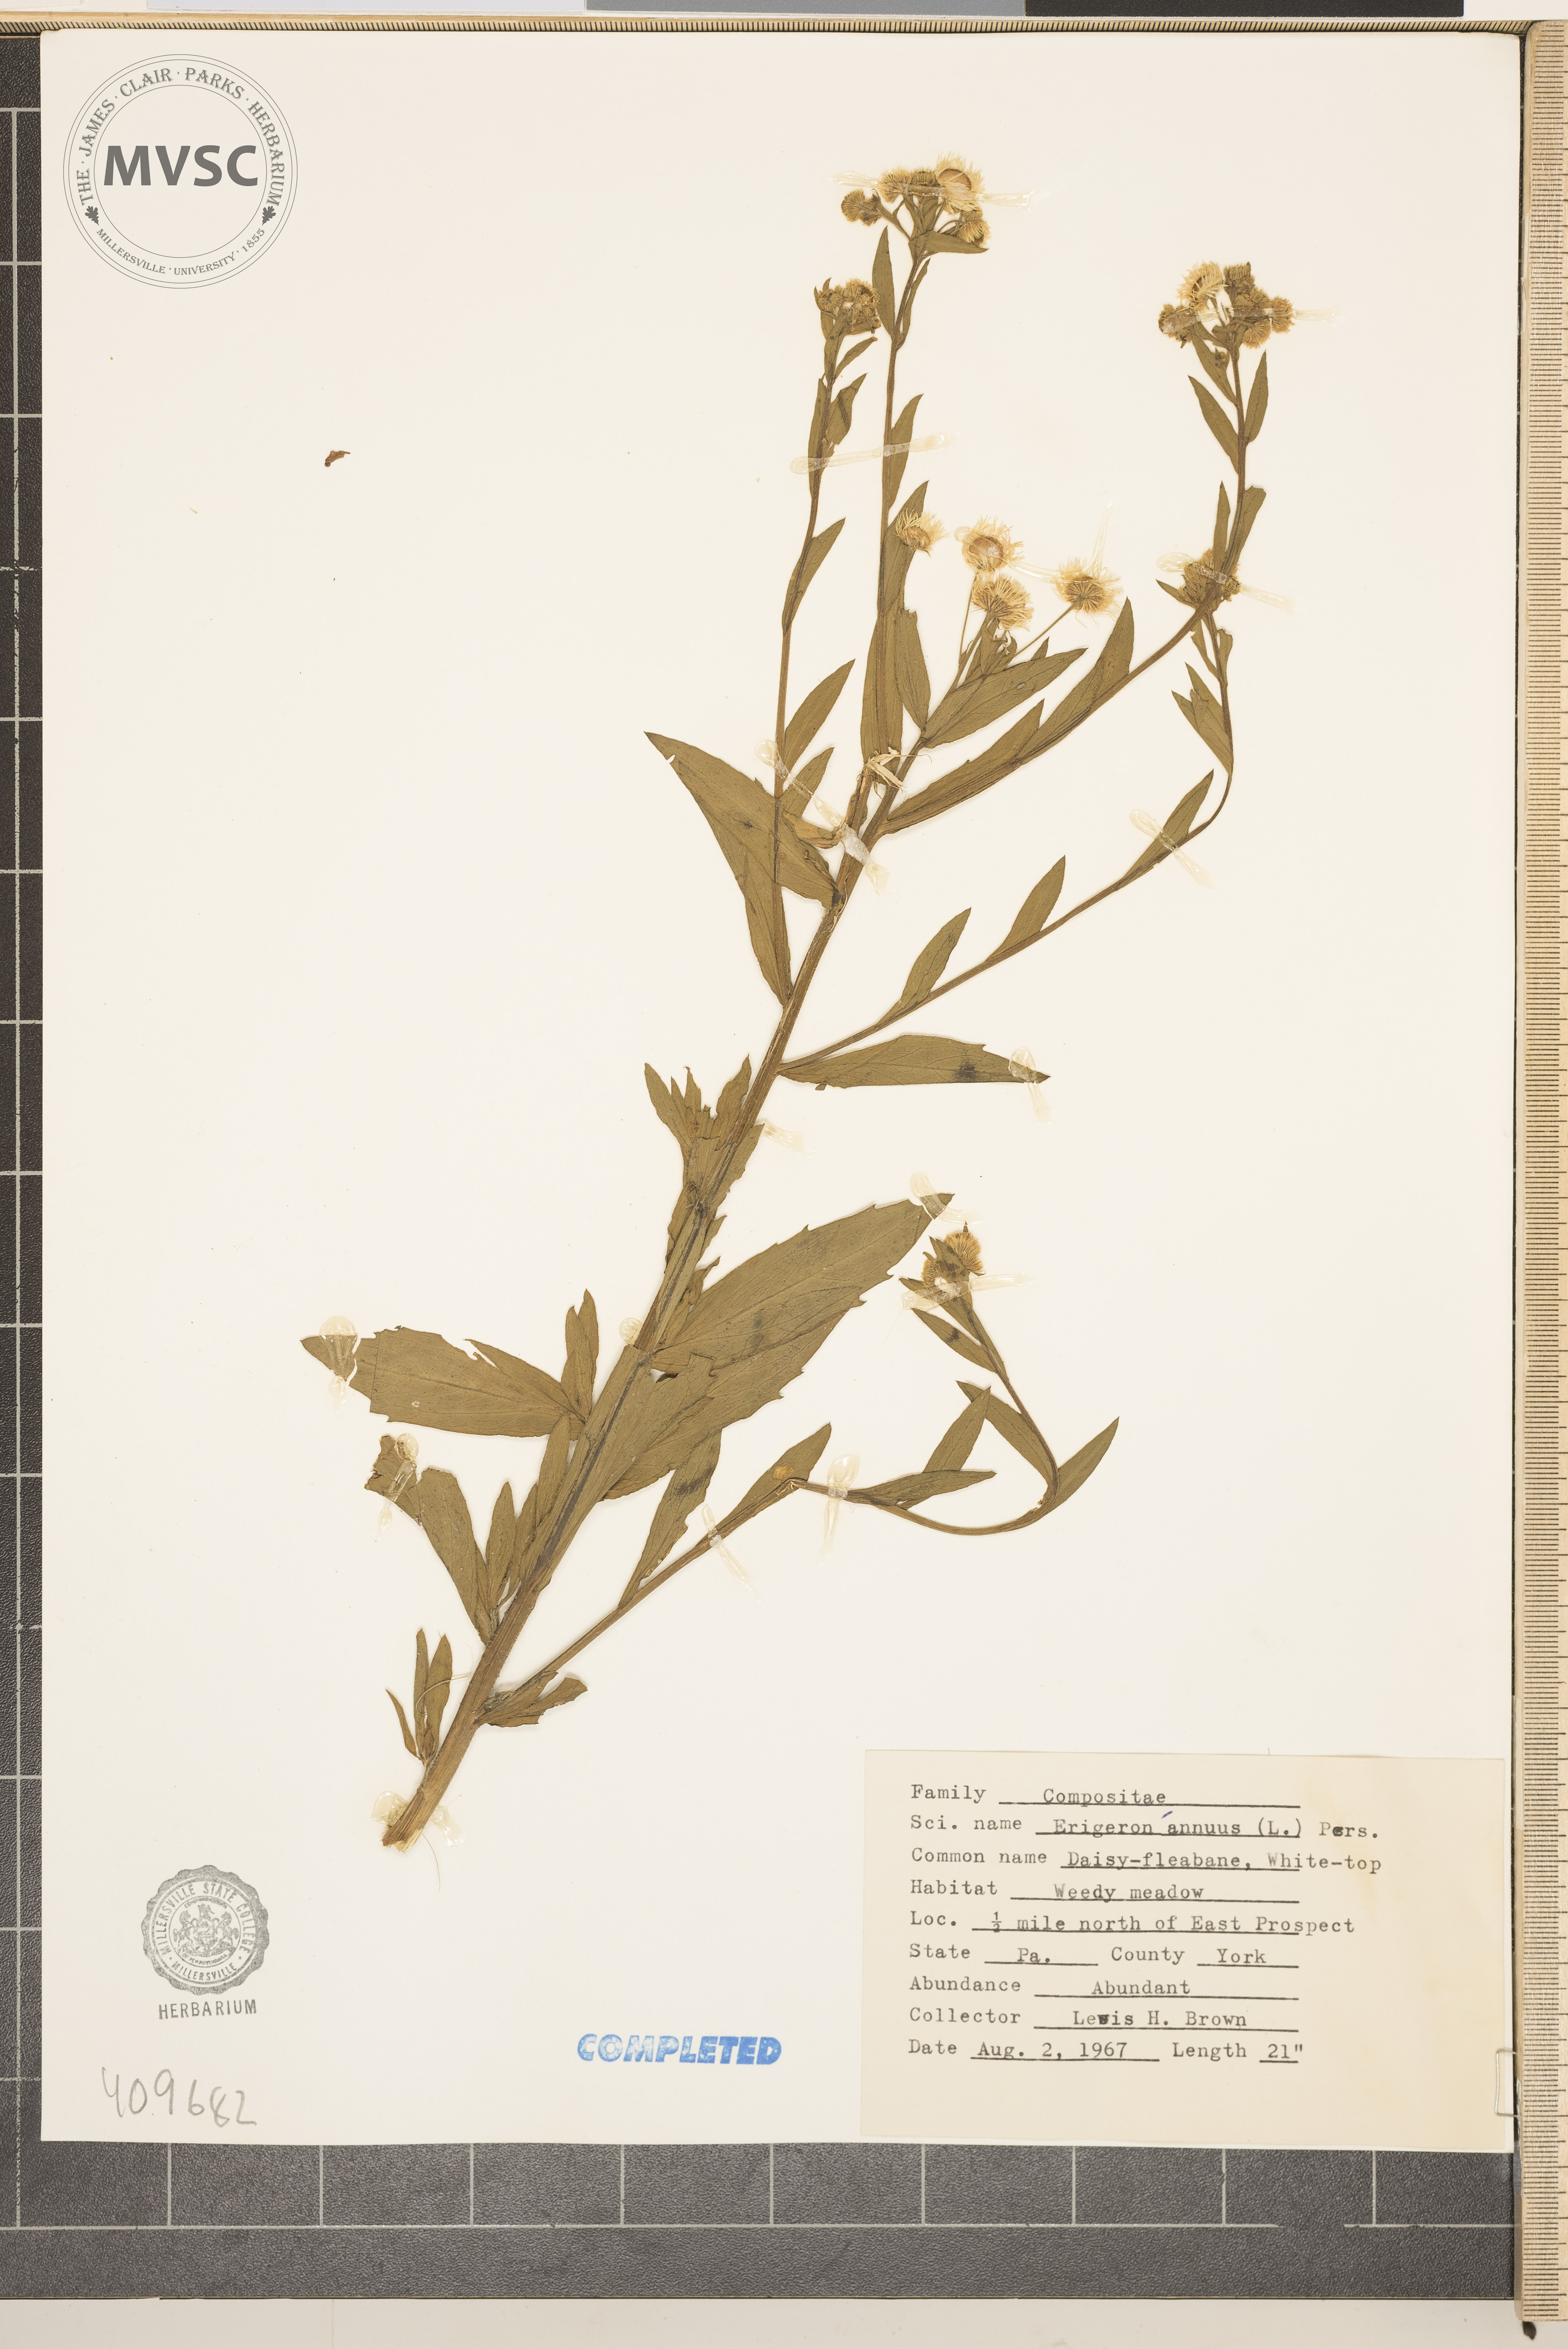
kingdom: Plantae
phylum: Tracheophyta
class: Magnoliopsida
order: Asterales
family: Asteraceae
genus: Erigeron
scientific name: Erigeron annuus
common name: Tall fleabane
